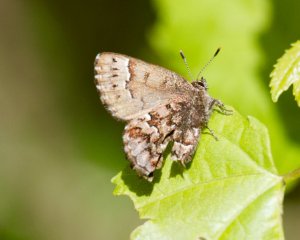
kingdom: Animalia
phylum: Arthropoda
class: Insecta
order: Lepidoptera
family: Lycaenidae
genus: Incisalia
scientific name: Incisalia lanoraieensis
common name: Bog Elfin
